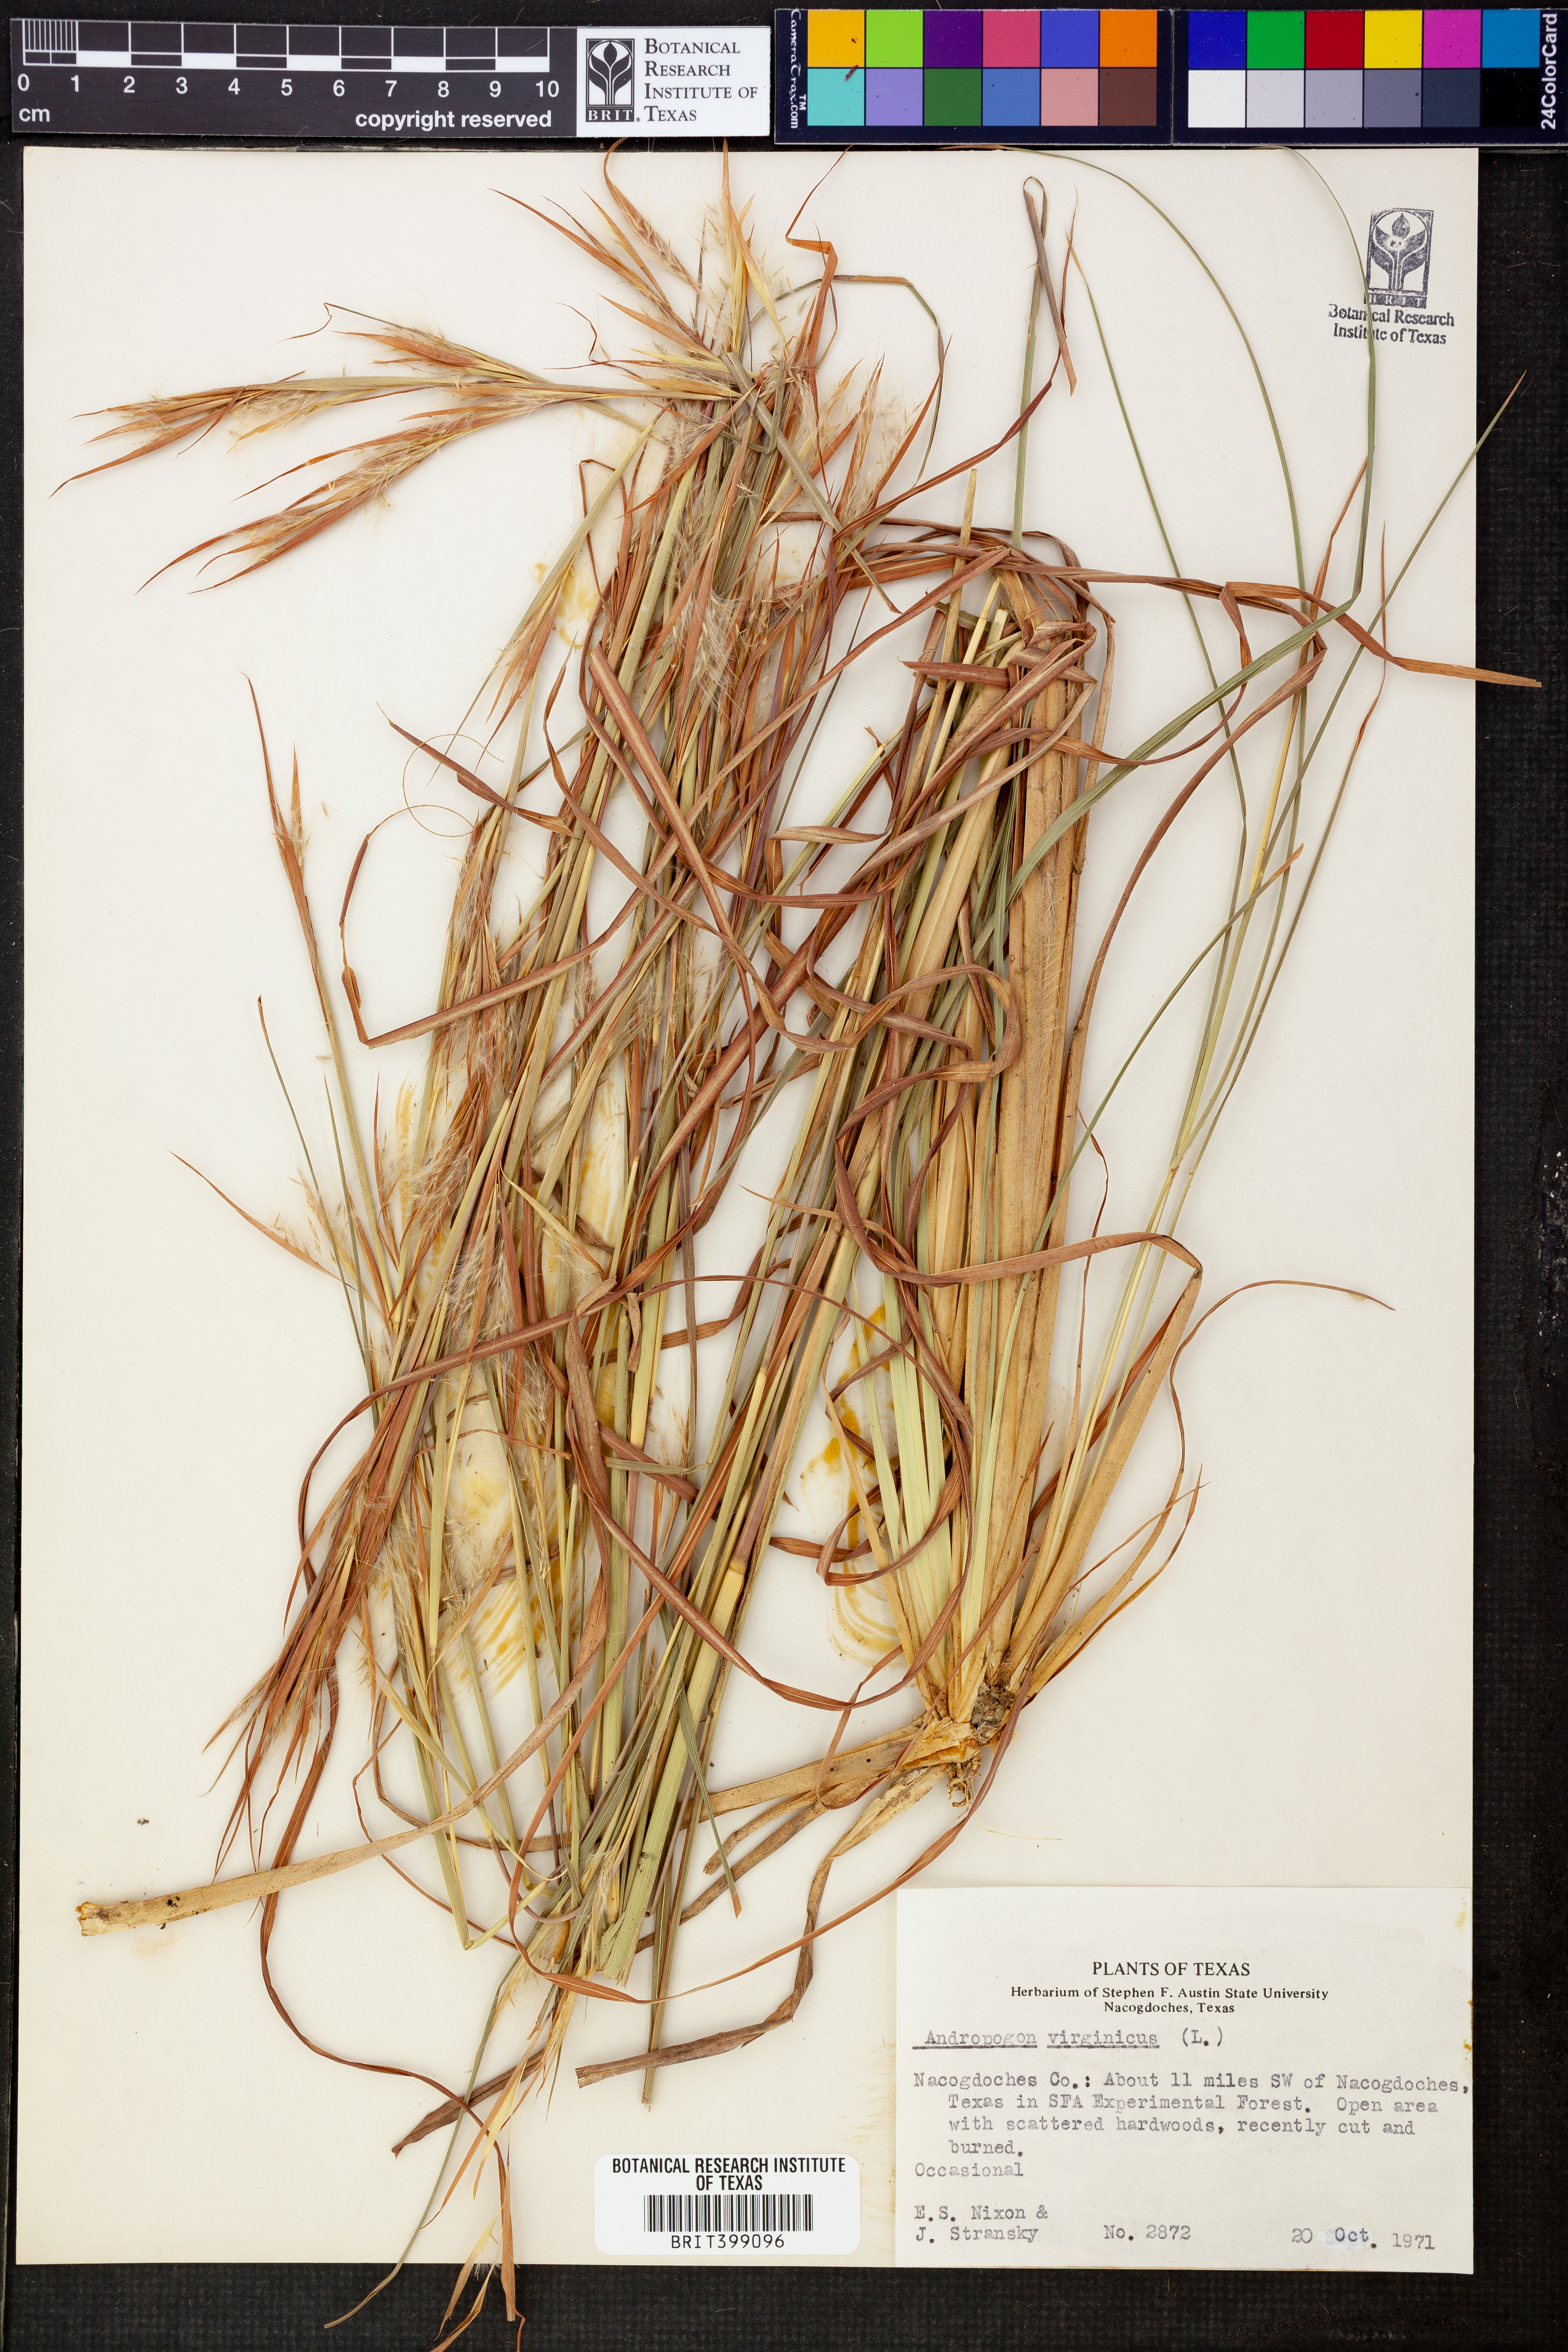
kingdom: Plantae
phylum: Tracheophyta
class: Liliopsida
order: Poales
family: Poaceae
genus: Andropogon
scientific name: Andropogon virginicus
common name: Broomsedge bluestem
